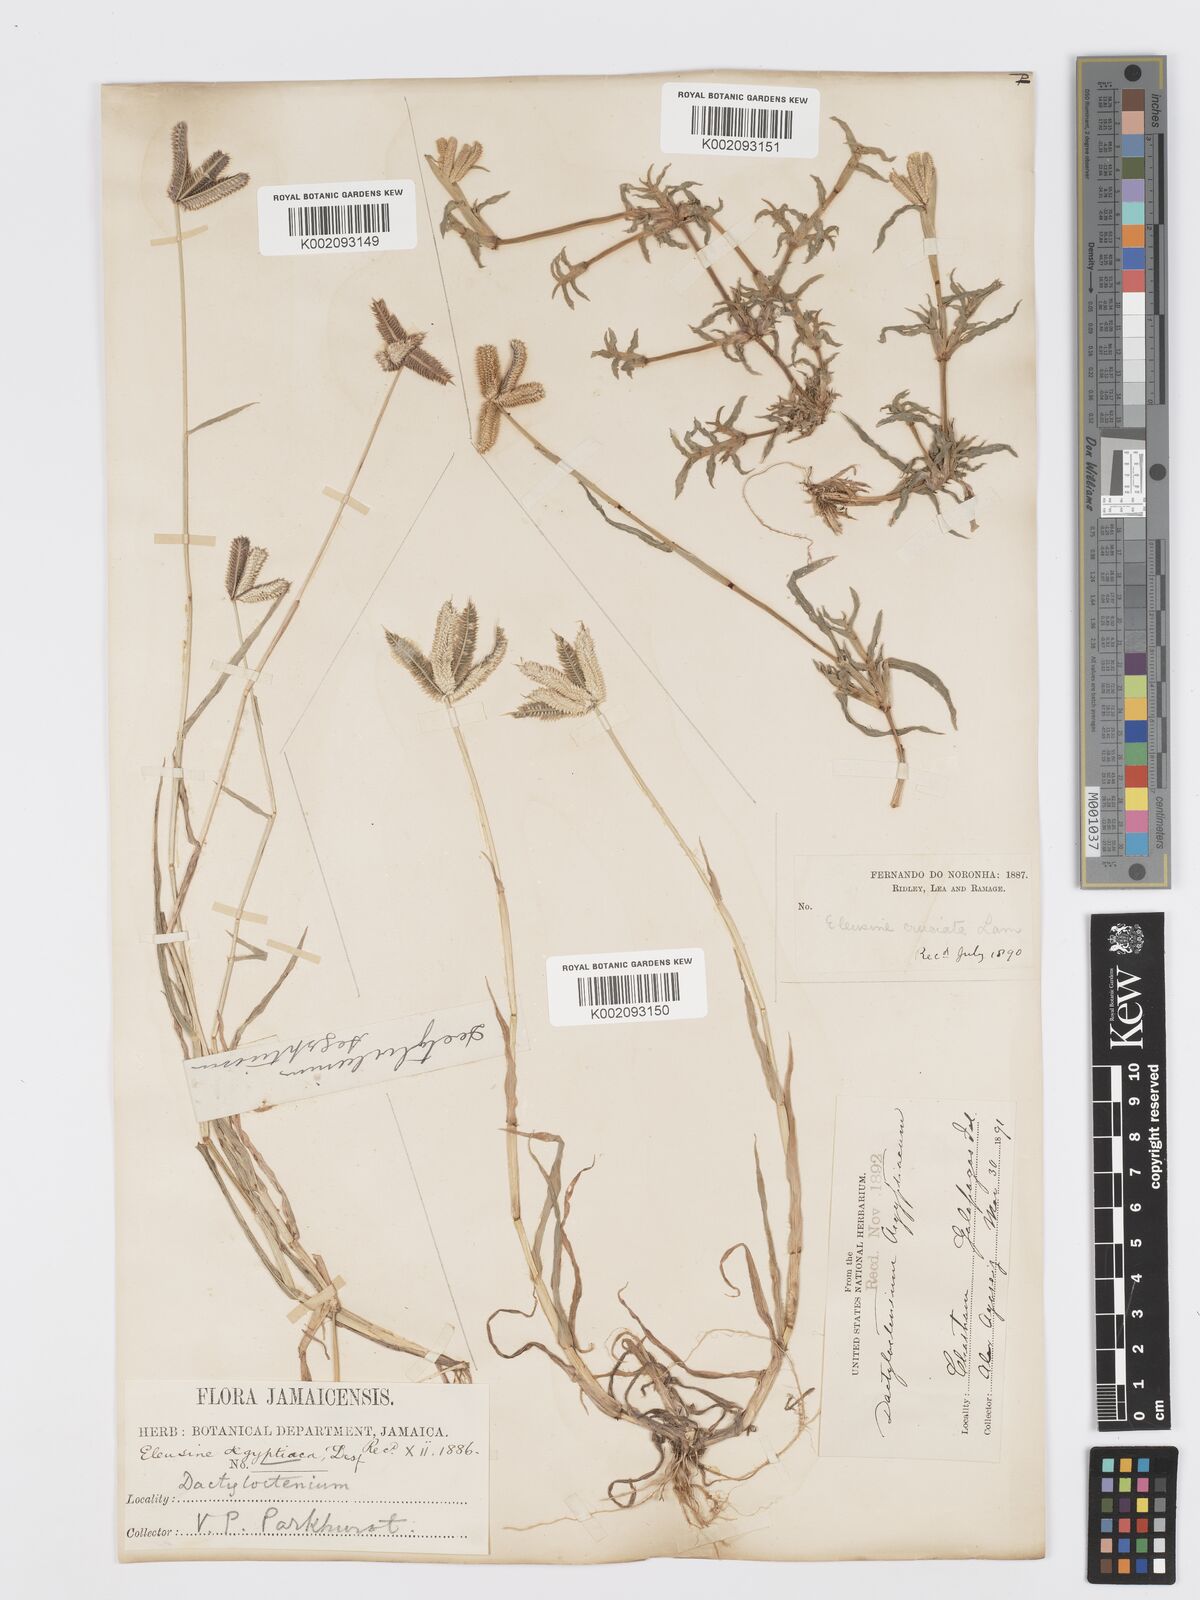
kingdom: Plantae
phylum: Tracheophyta
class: Liliopsida
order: Poales
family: Poaceae
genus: Dactyloctenium
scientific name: Dactyloctenium aegyptium
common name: Egyptian grass
